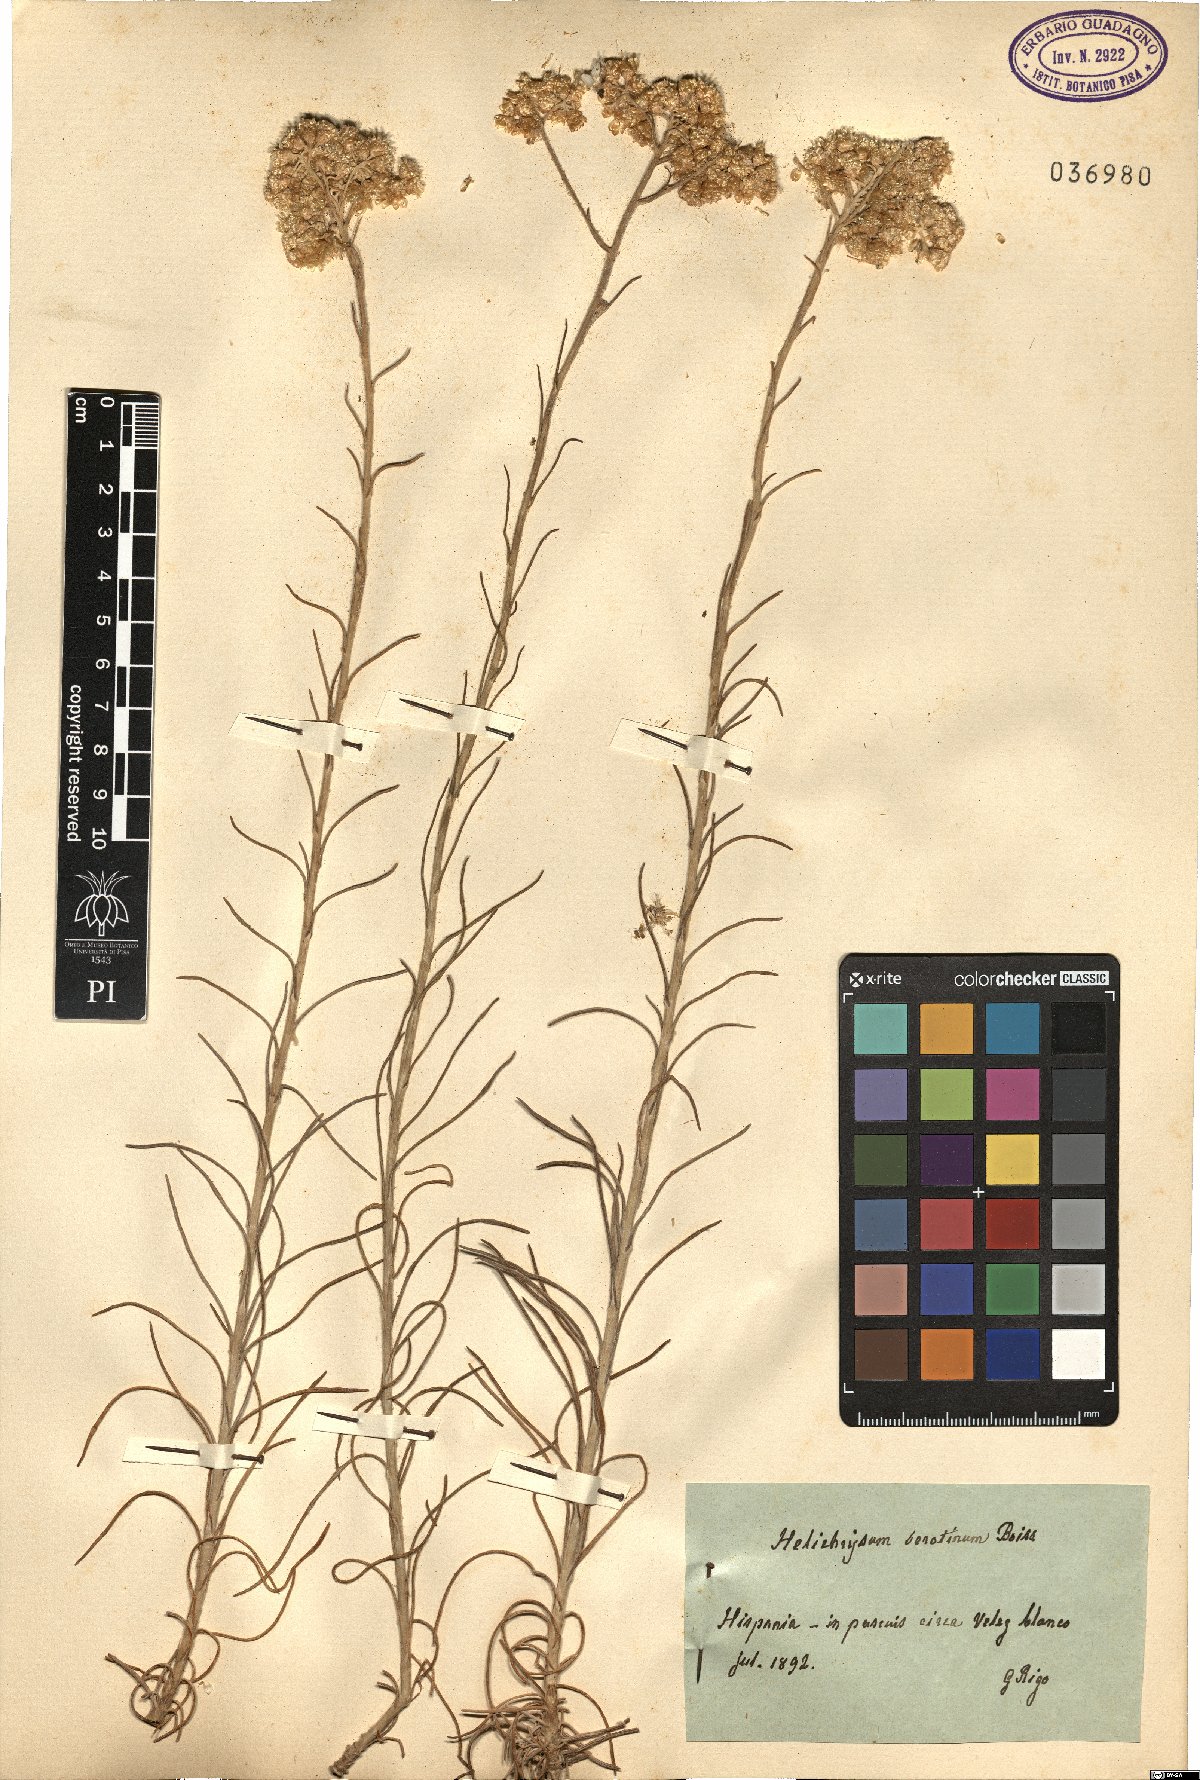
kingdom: Plantae
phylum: Tracheophyta
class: Magnoliopsida
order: Asterales
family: Asteraceae
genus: Helichrysum
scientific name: Helichrysum serotinum
